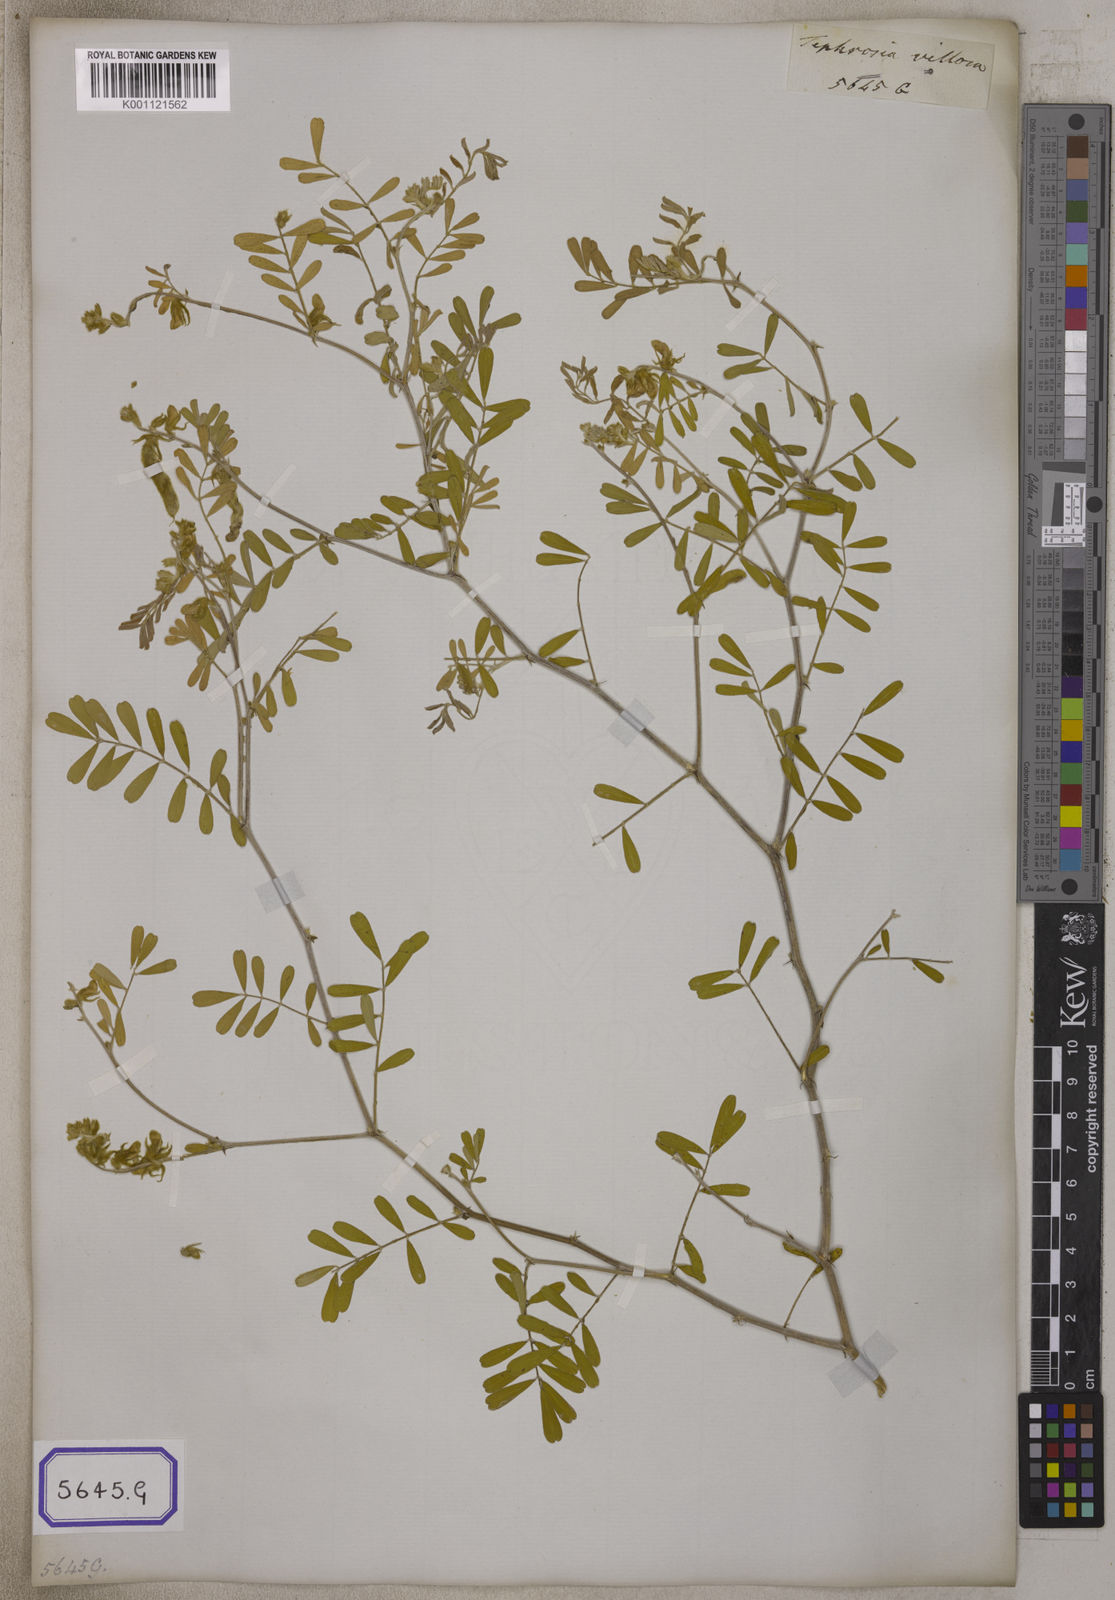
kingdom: Plantae
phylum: Tracheophyta
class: Magnoliopsida
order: Fabales
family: Fabaceae
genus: Tephrosia
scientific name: Tephrosia villosa
